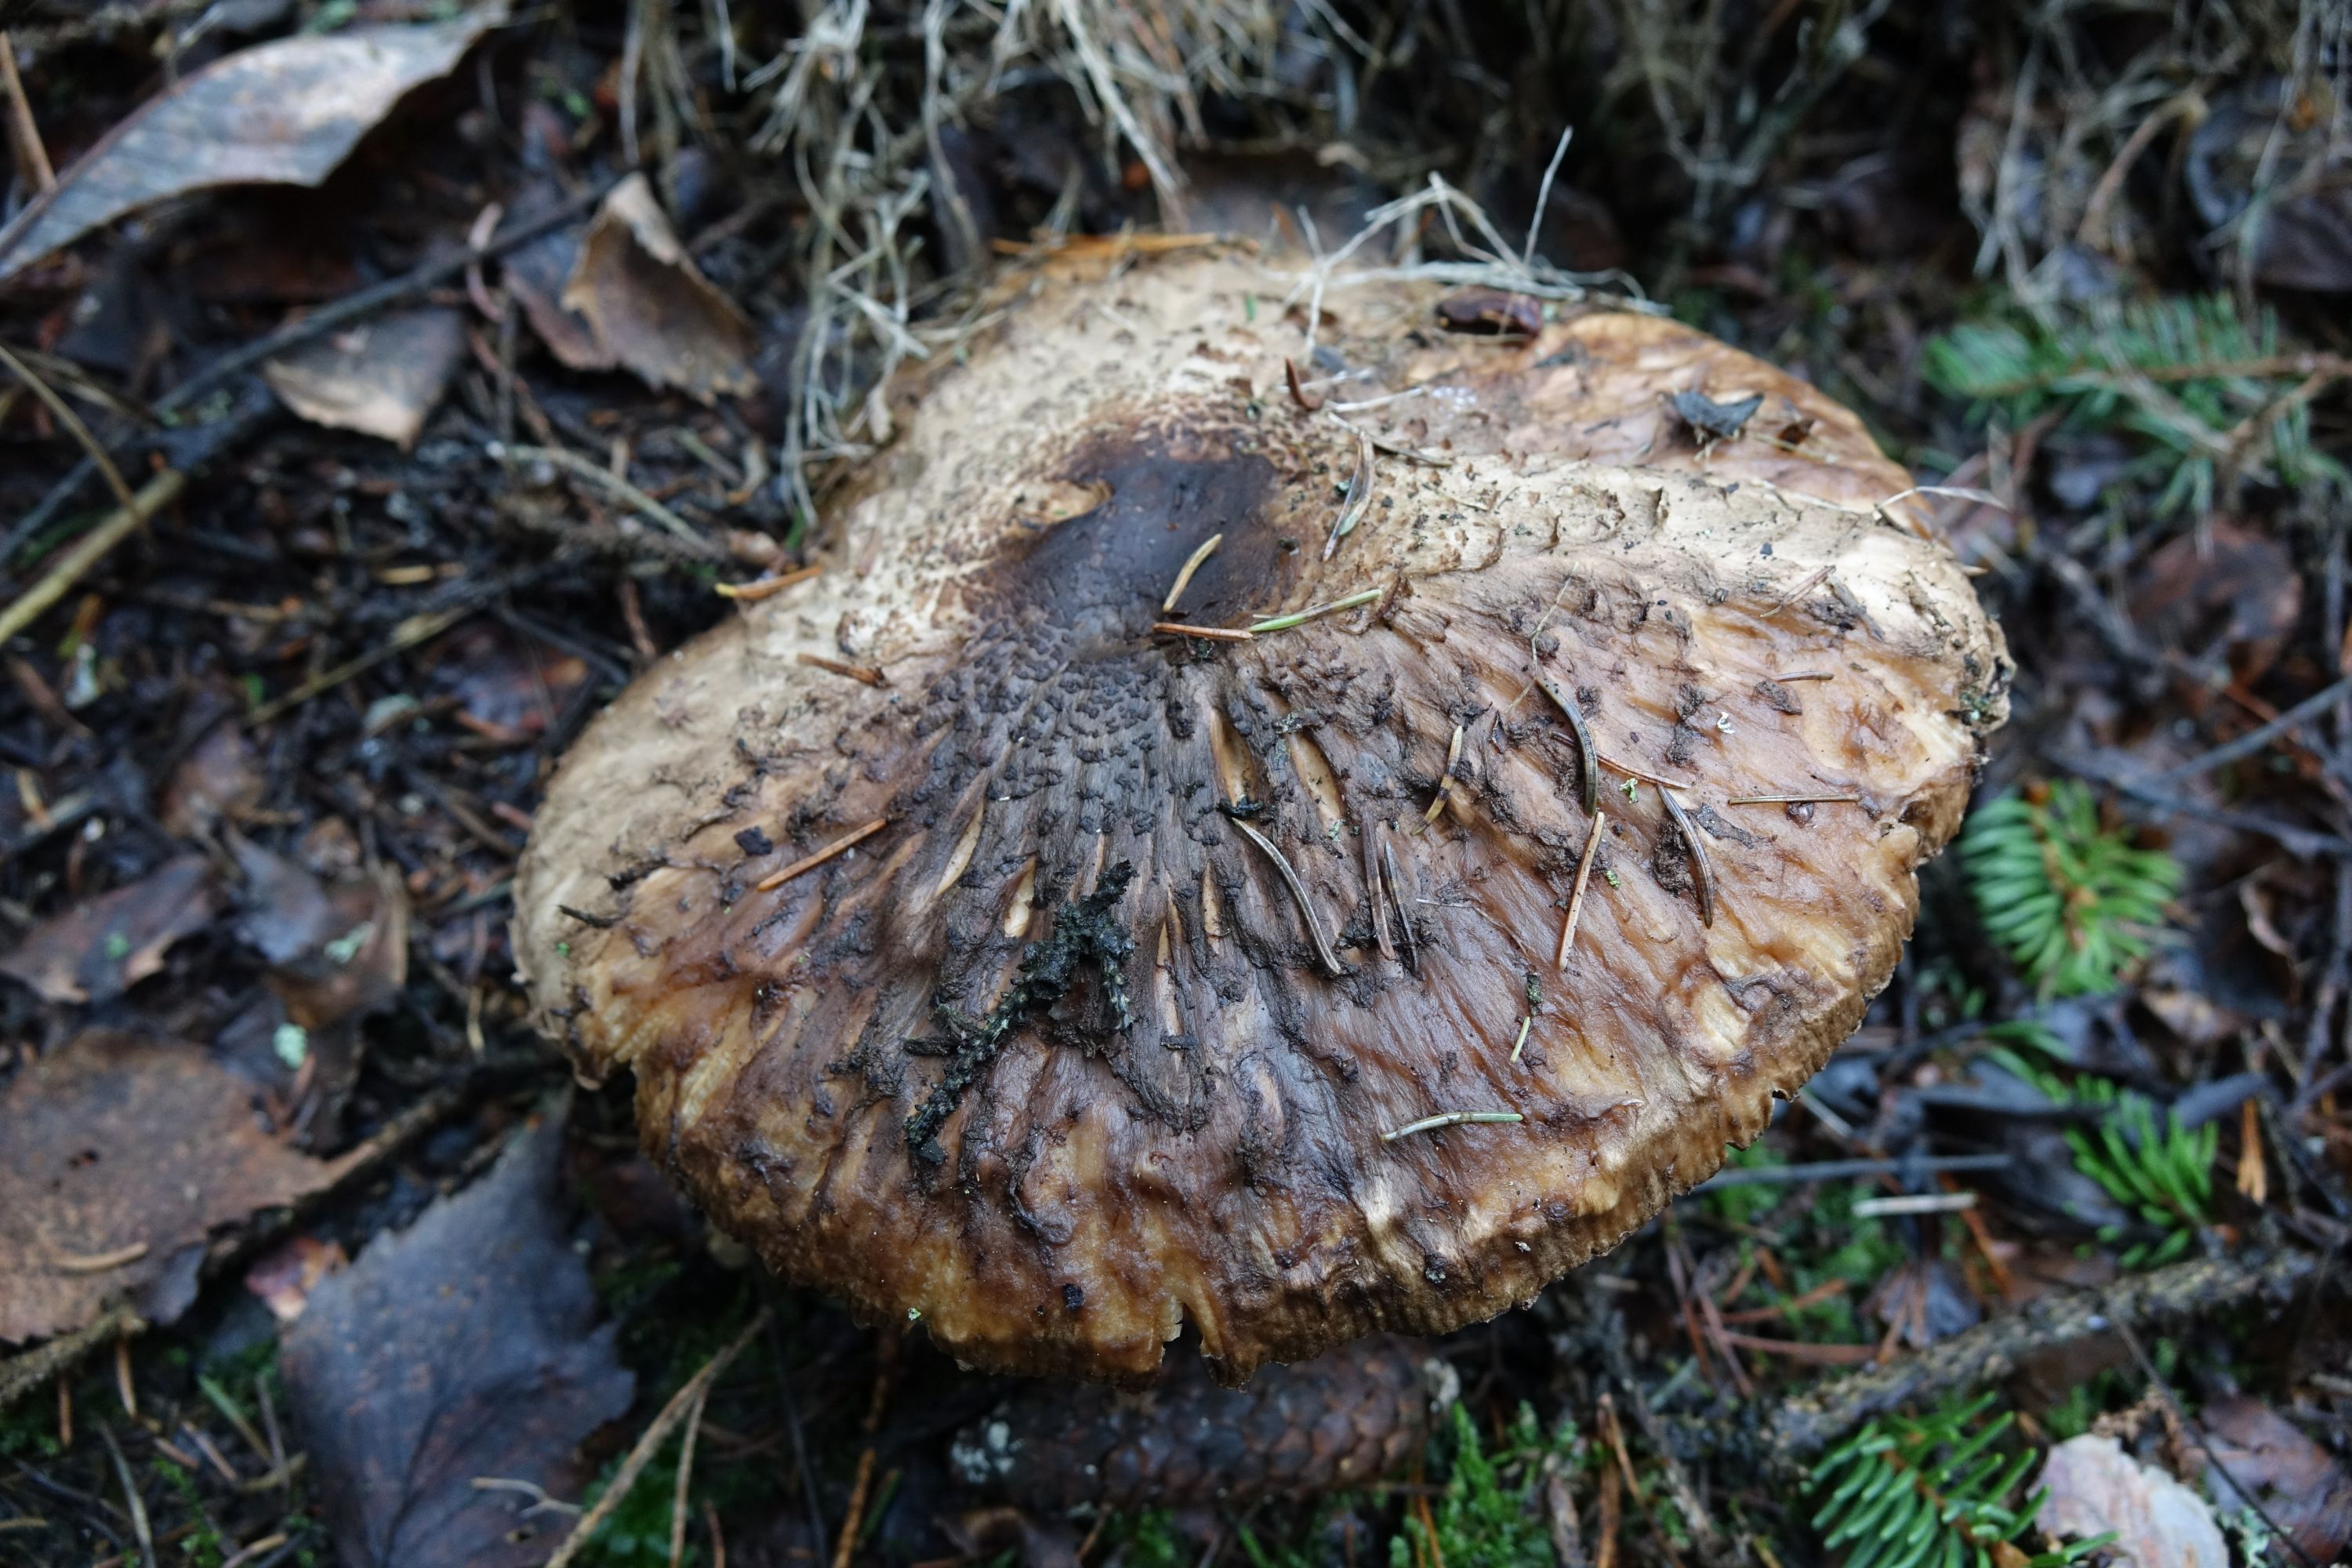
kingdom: Fungi
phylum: Basidiomycota
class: Agaricomycetes
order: Agaricales
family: Agaricaceae
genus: Chlorophyllum
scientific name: Chlorophyllum olivieri
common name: Conifer parasol
